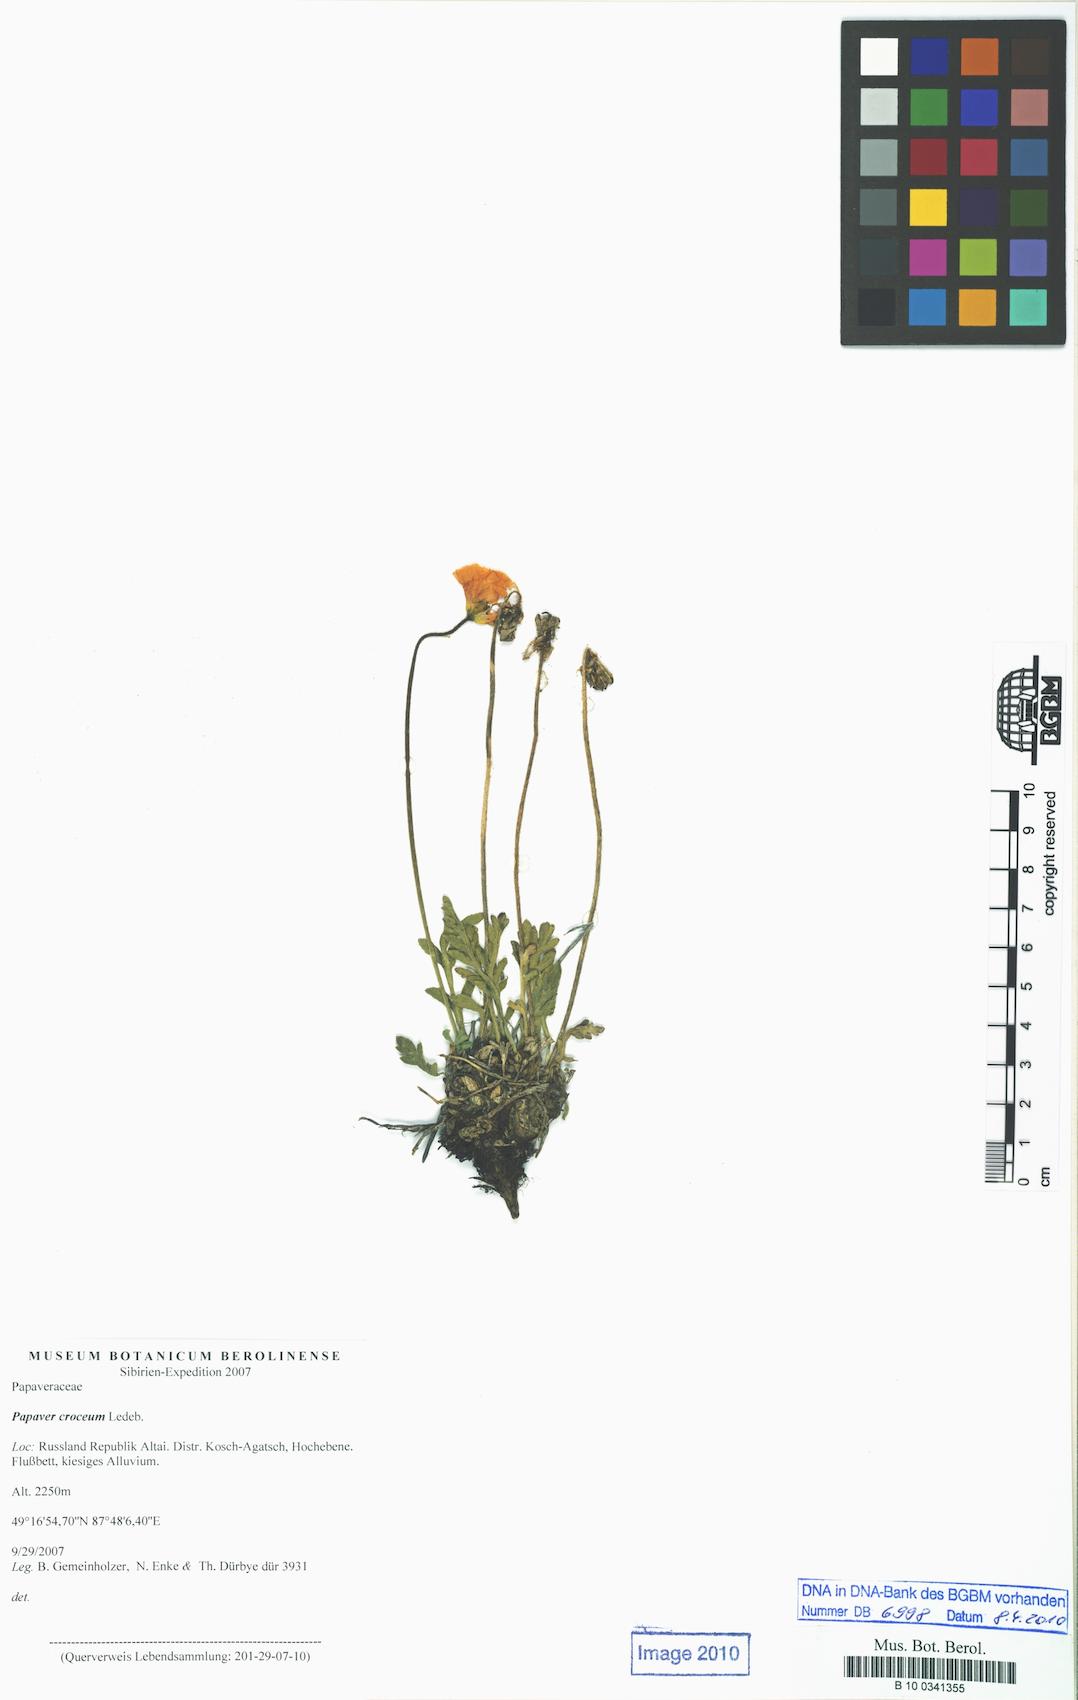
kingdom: Plantae
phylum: Tracheophyta
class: Magnoliopsida
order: Ranunculales
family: Papaveraceae
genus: Papaver
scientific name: Papaver croceum
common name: Siberian poppy
